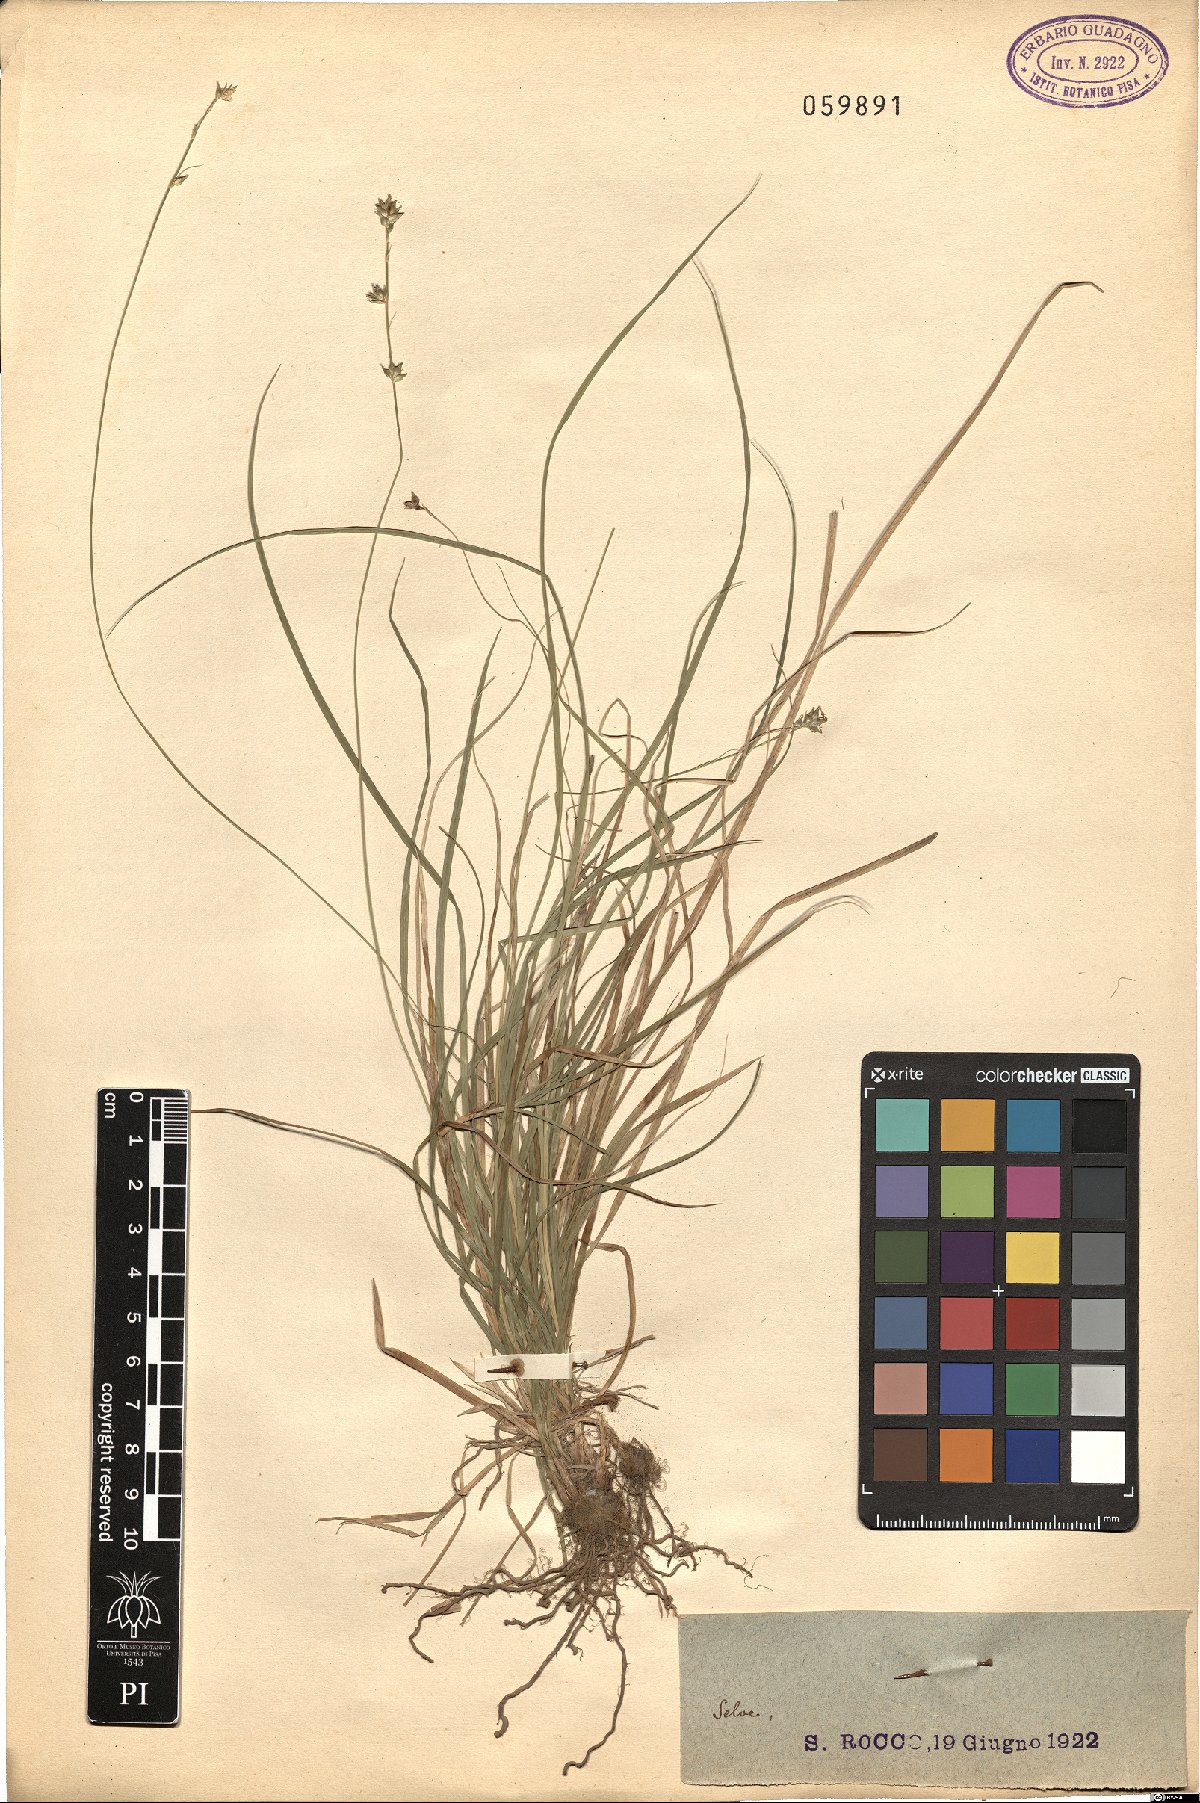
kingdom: Plantae
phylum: Tracheophyta
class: Liliopsida
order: Poales
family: Cyperaceae
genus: Carex
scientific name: Carex
